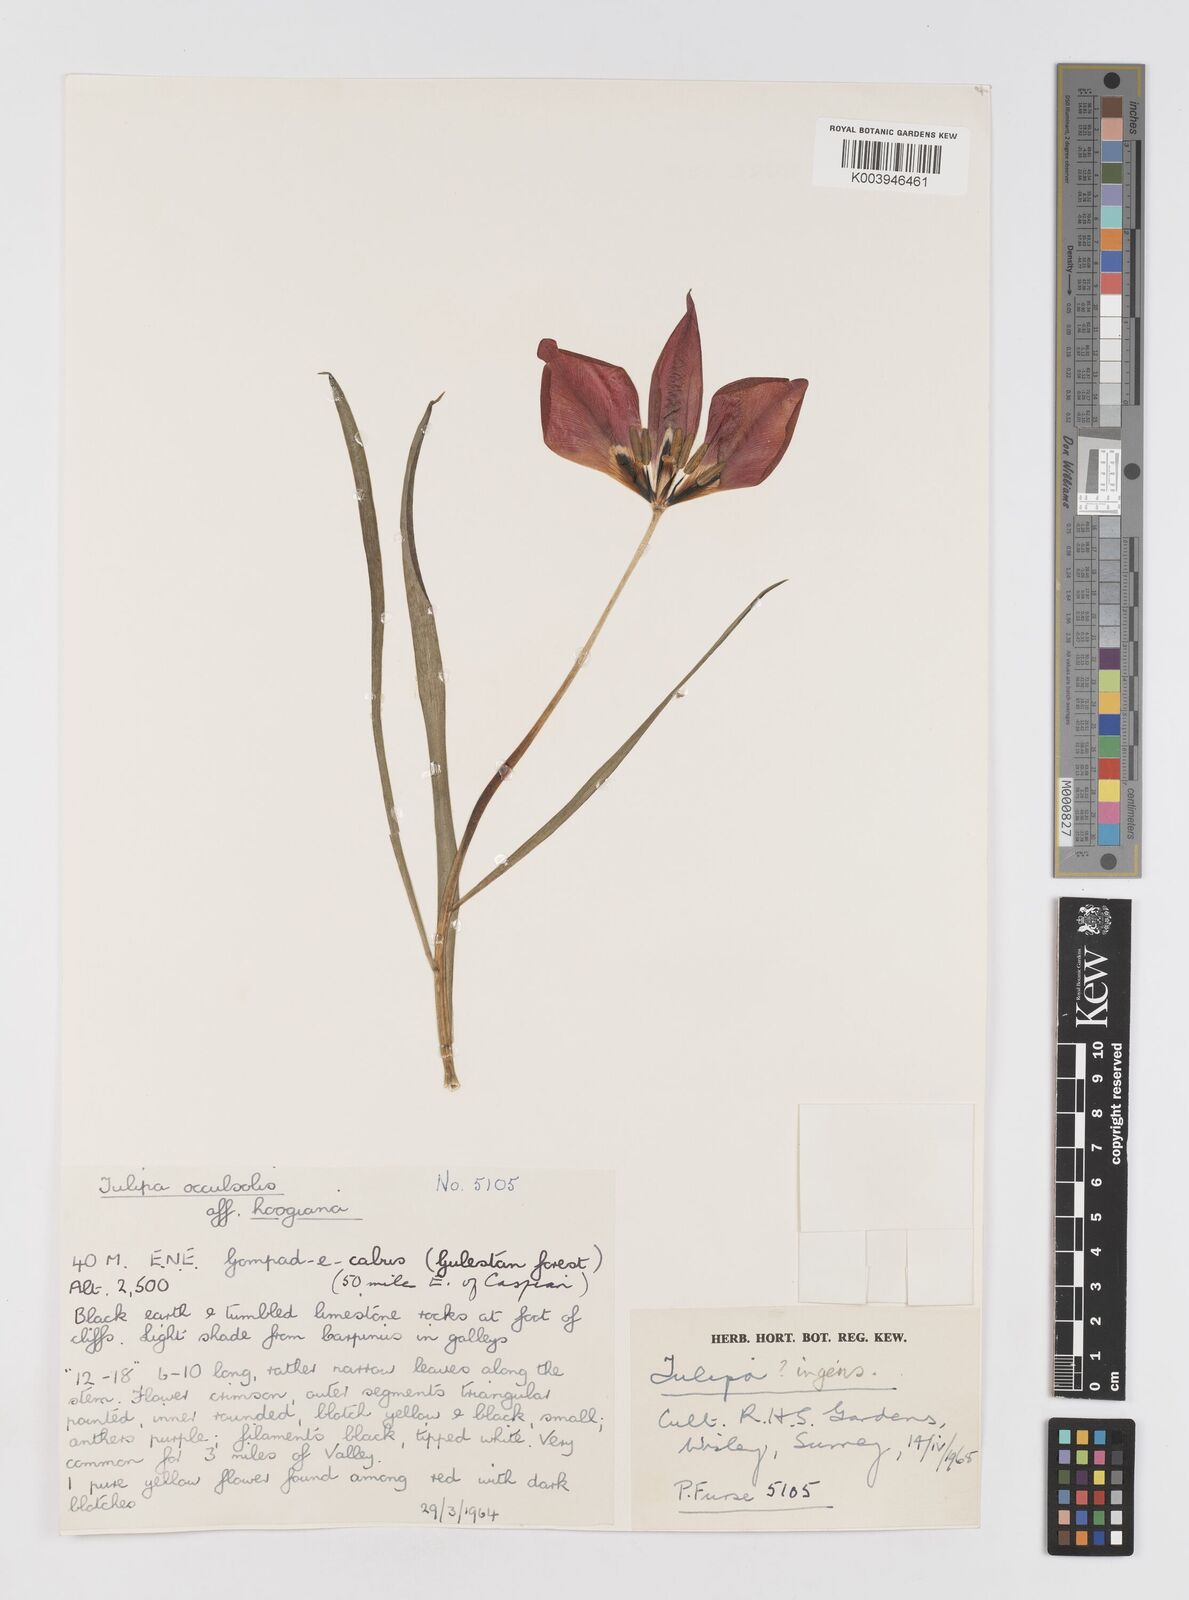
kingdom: Plantae
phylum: Tracheophyta
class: Liliopsida
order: Liliales
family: Liliaceae
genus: Tulipa
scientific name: Tulipa ingens
